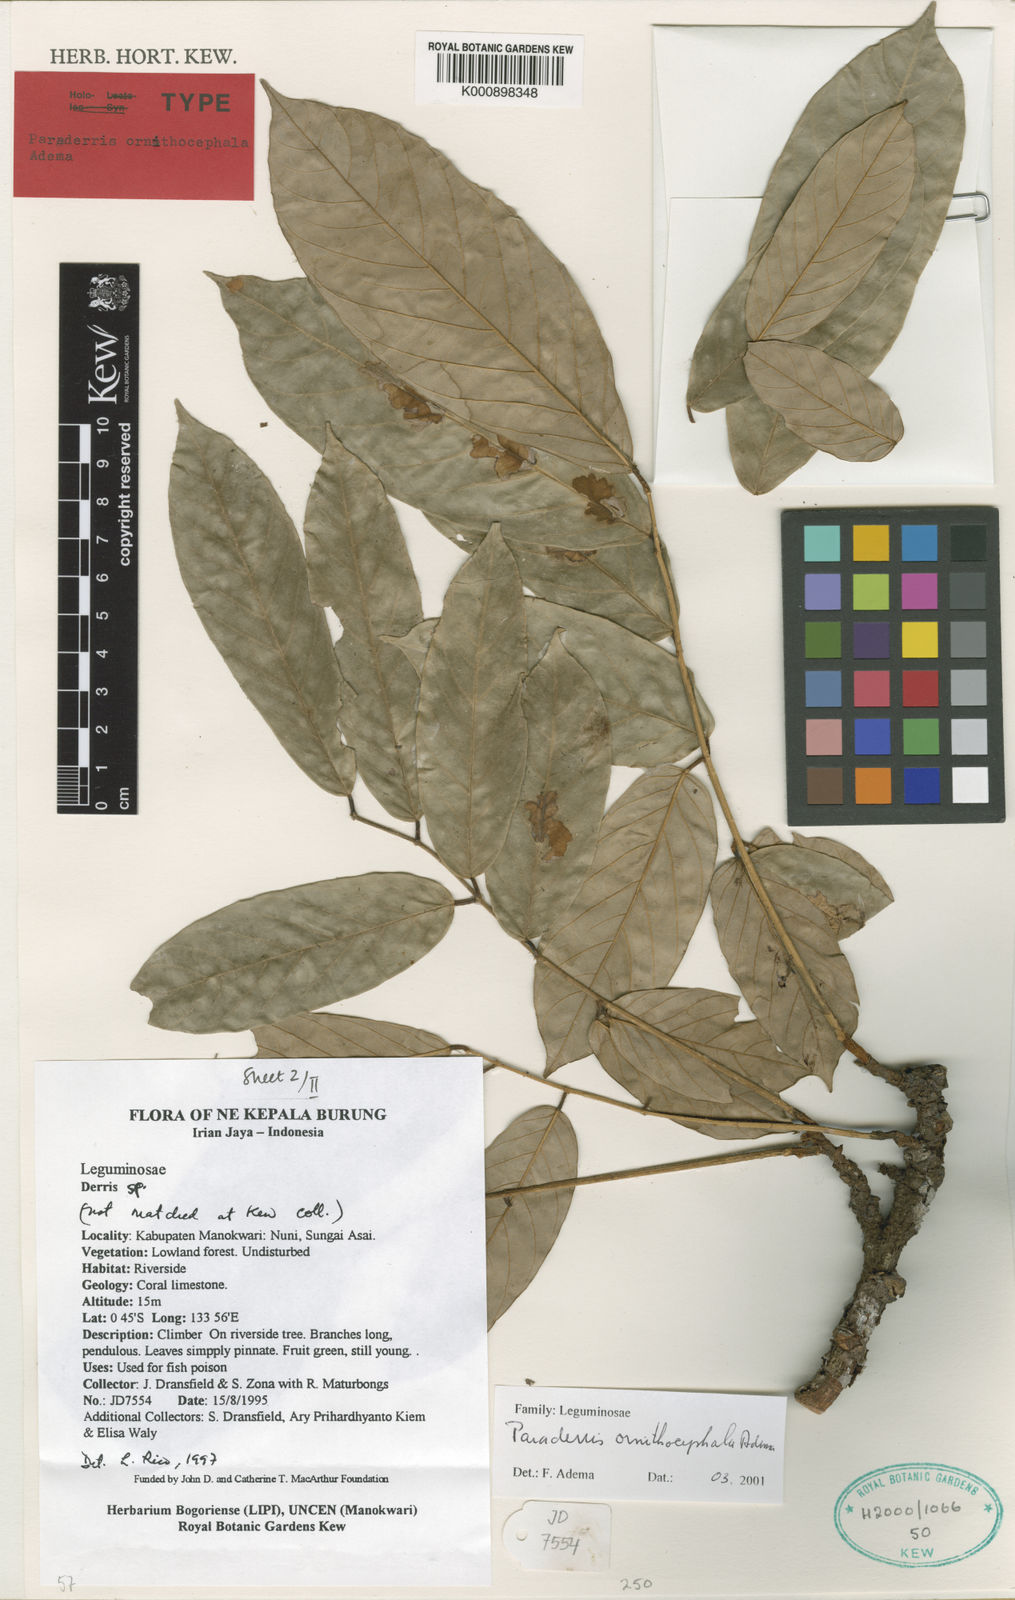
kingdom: Plantae
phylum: Tracheophyta
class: Magnoliopsida
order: Fabales
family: Fabaceae
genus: Derris
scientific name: Derris ornithocephala
